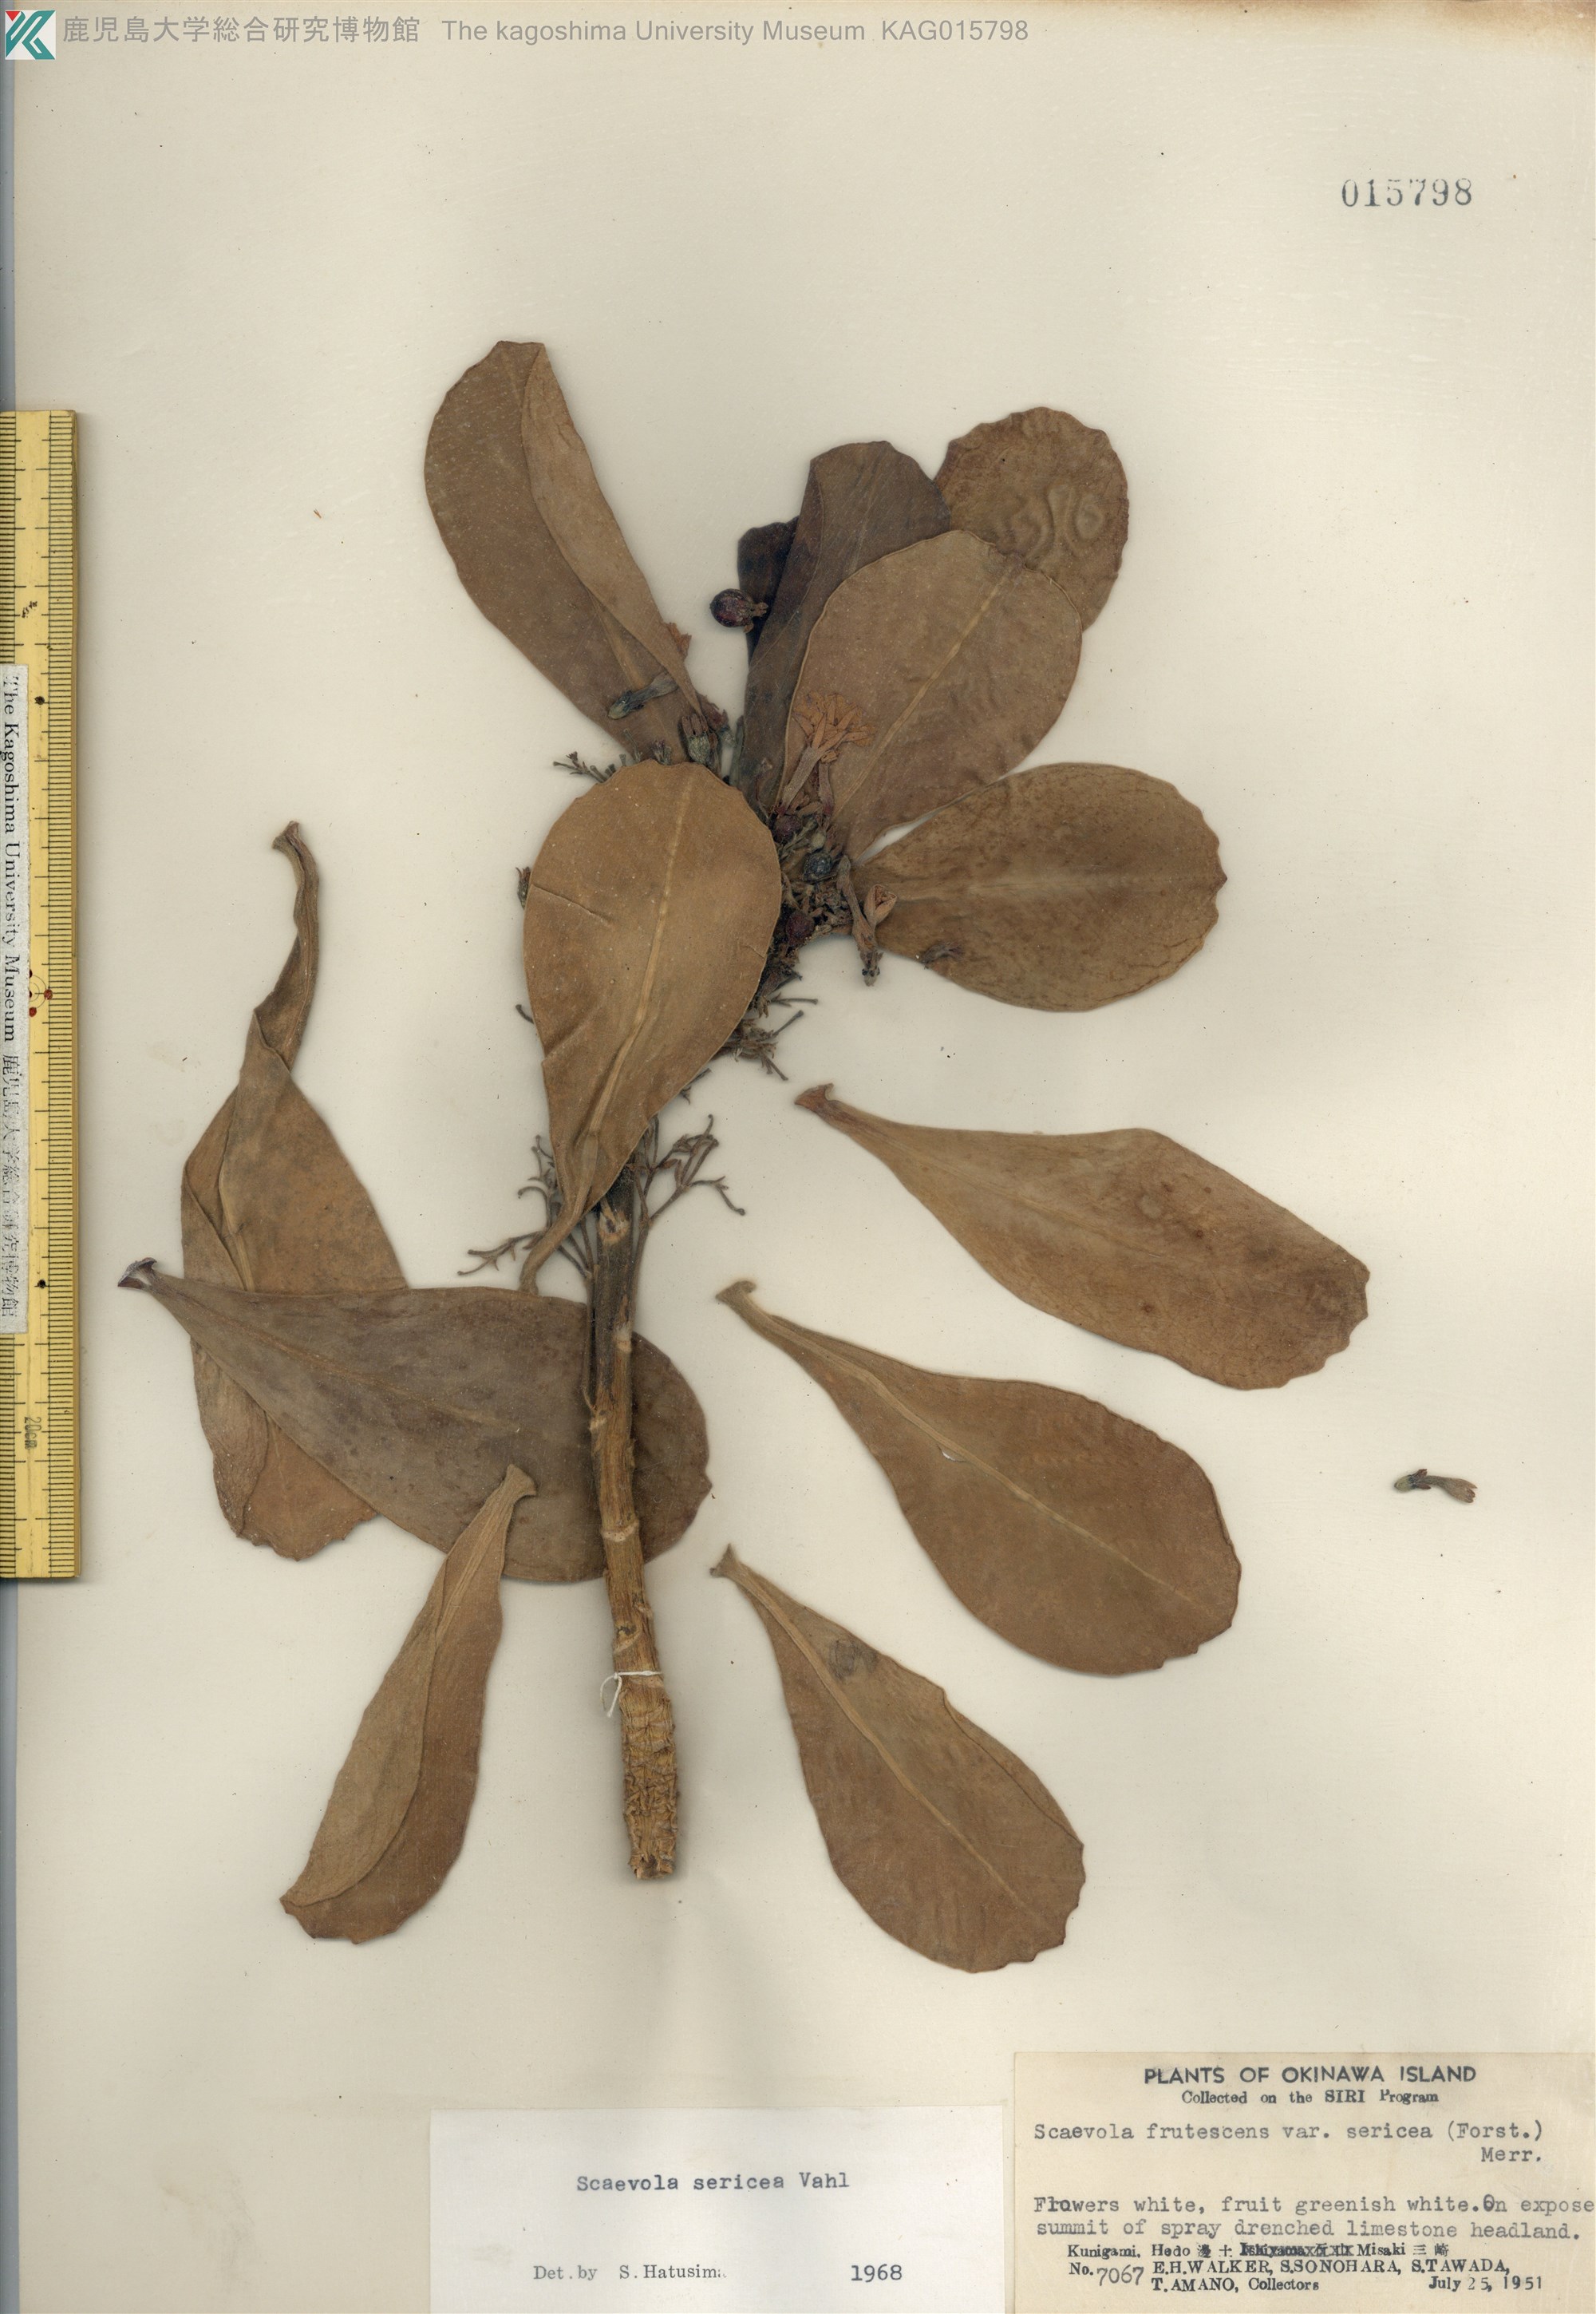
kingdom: Plantae
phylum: Tracheophyta
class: Magnoliopsida
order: Asterales
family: Goodeniaceae
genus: Scaevola
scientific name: Scaevola taccada
